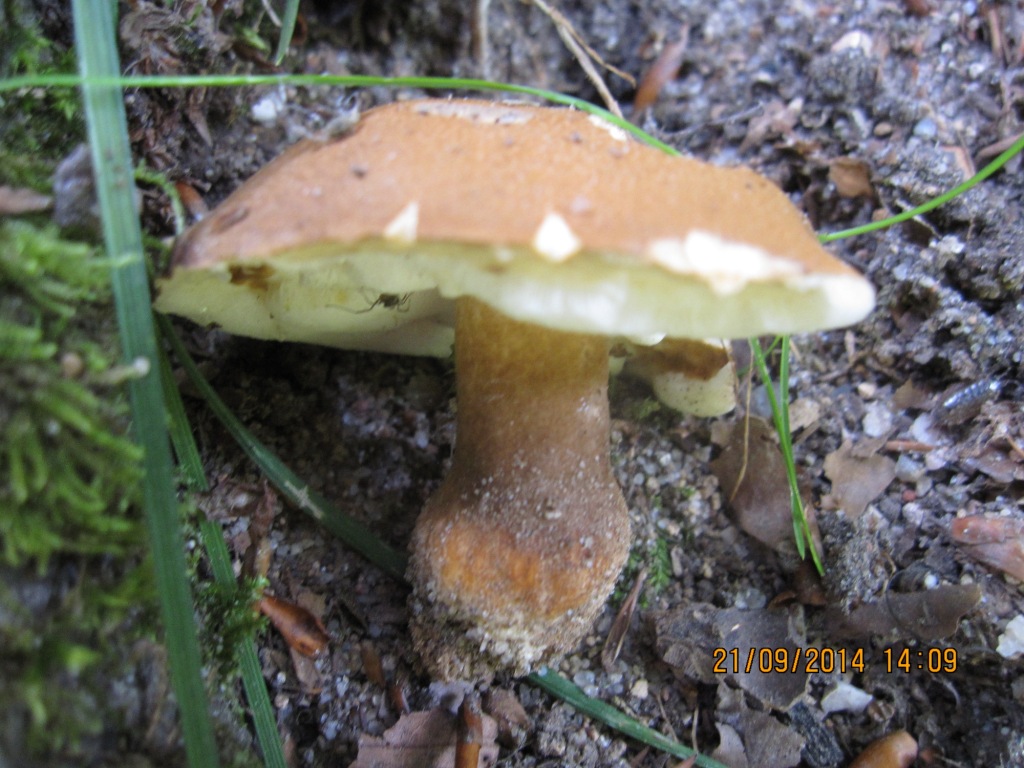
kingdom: Fungi
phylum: Basidiomycota
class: Agaricomycetes
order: Boletales
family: Gyroporaceae
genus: Gyroporus
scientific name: Gyroporus castaneus
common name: kastanie-kammerrørhat
